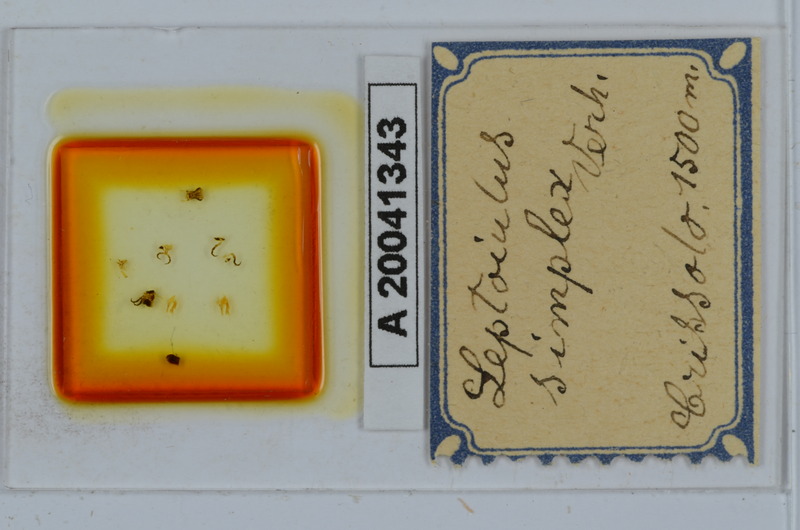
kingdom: Animalia
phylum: Arthropoda
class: Diplopoda
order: Julida
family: Julidae
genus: Leptoiulus
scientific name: Leptoiulus simplex
